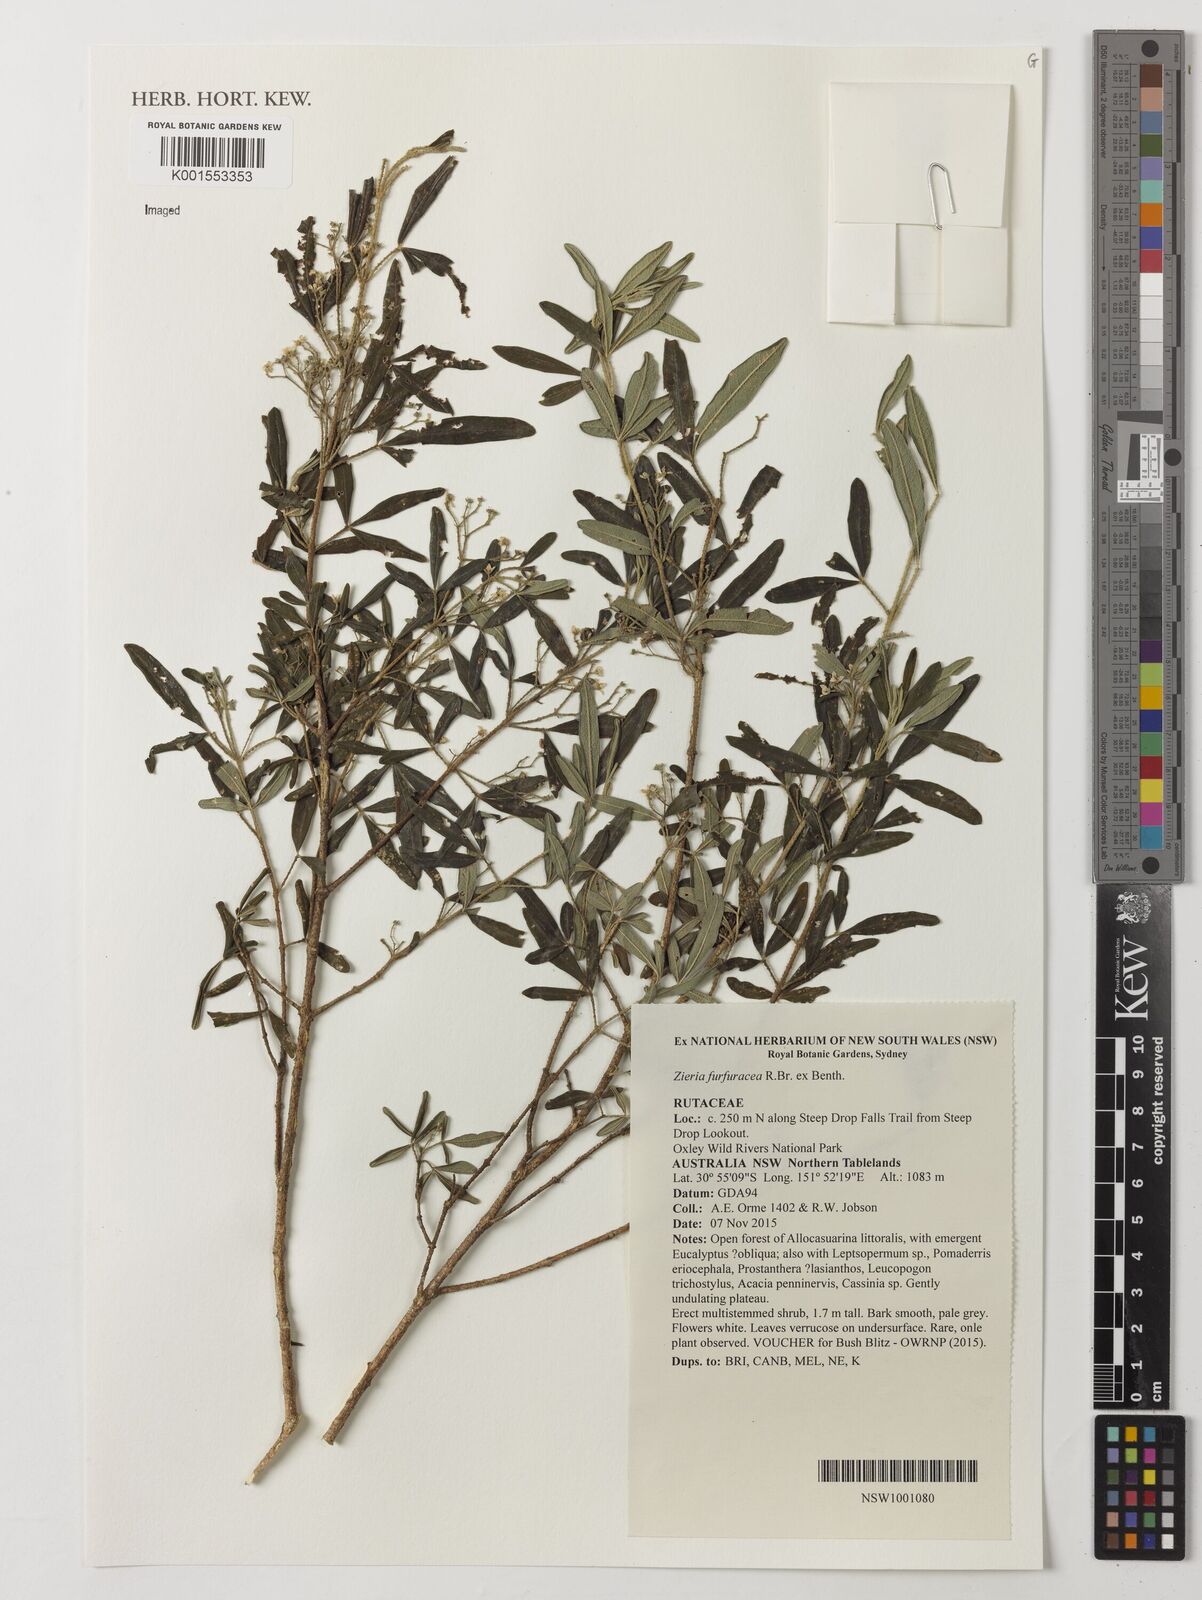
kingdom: Plantae
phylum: Tracheophyta
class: Magnoliopsida
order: Sapindales
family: Rutaceae
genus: Zieria
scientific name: Zieria furfuracea
